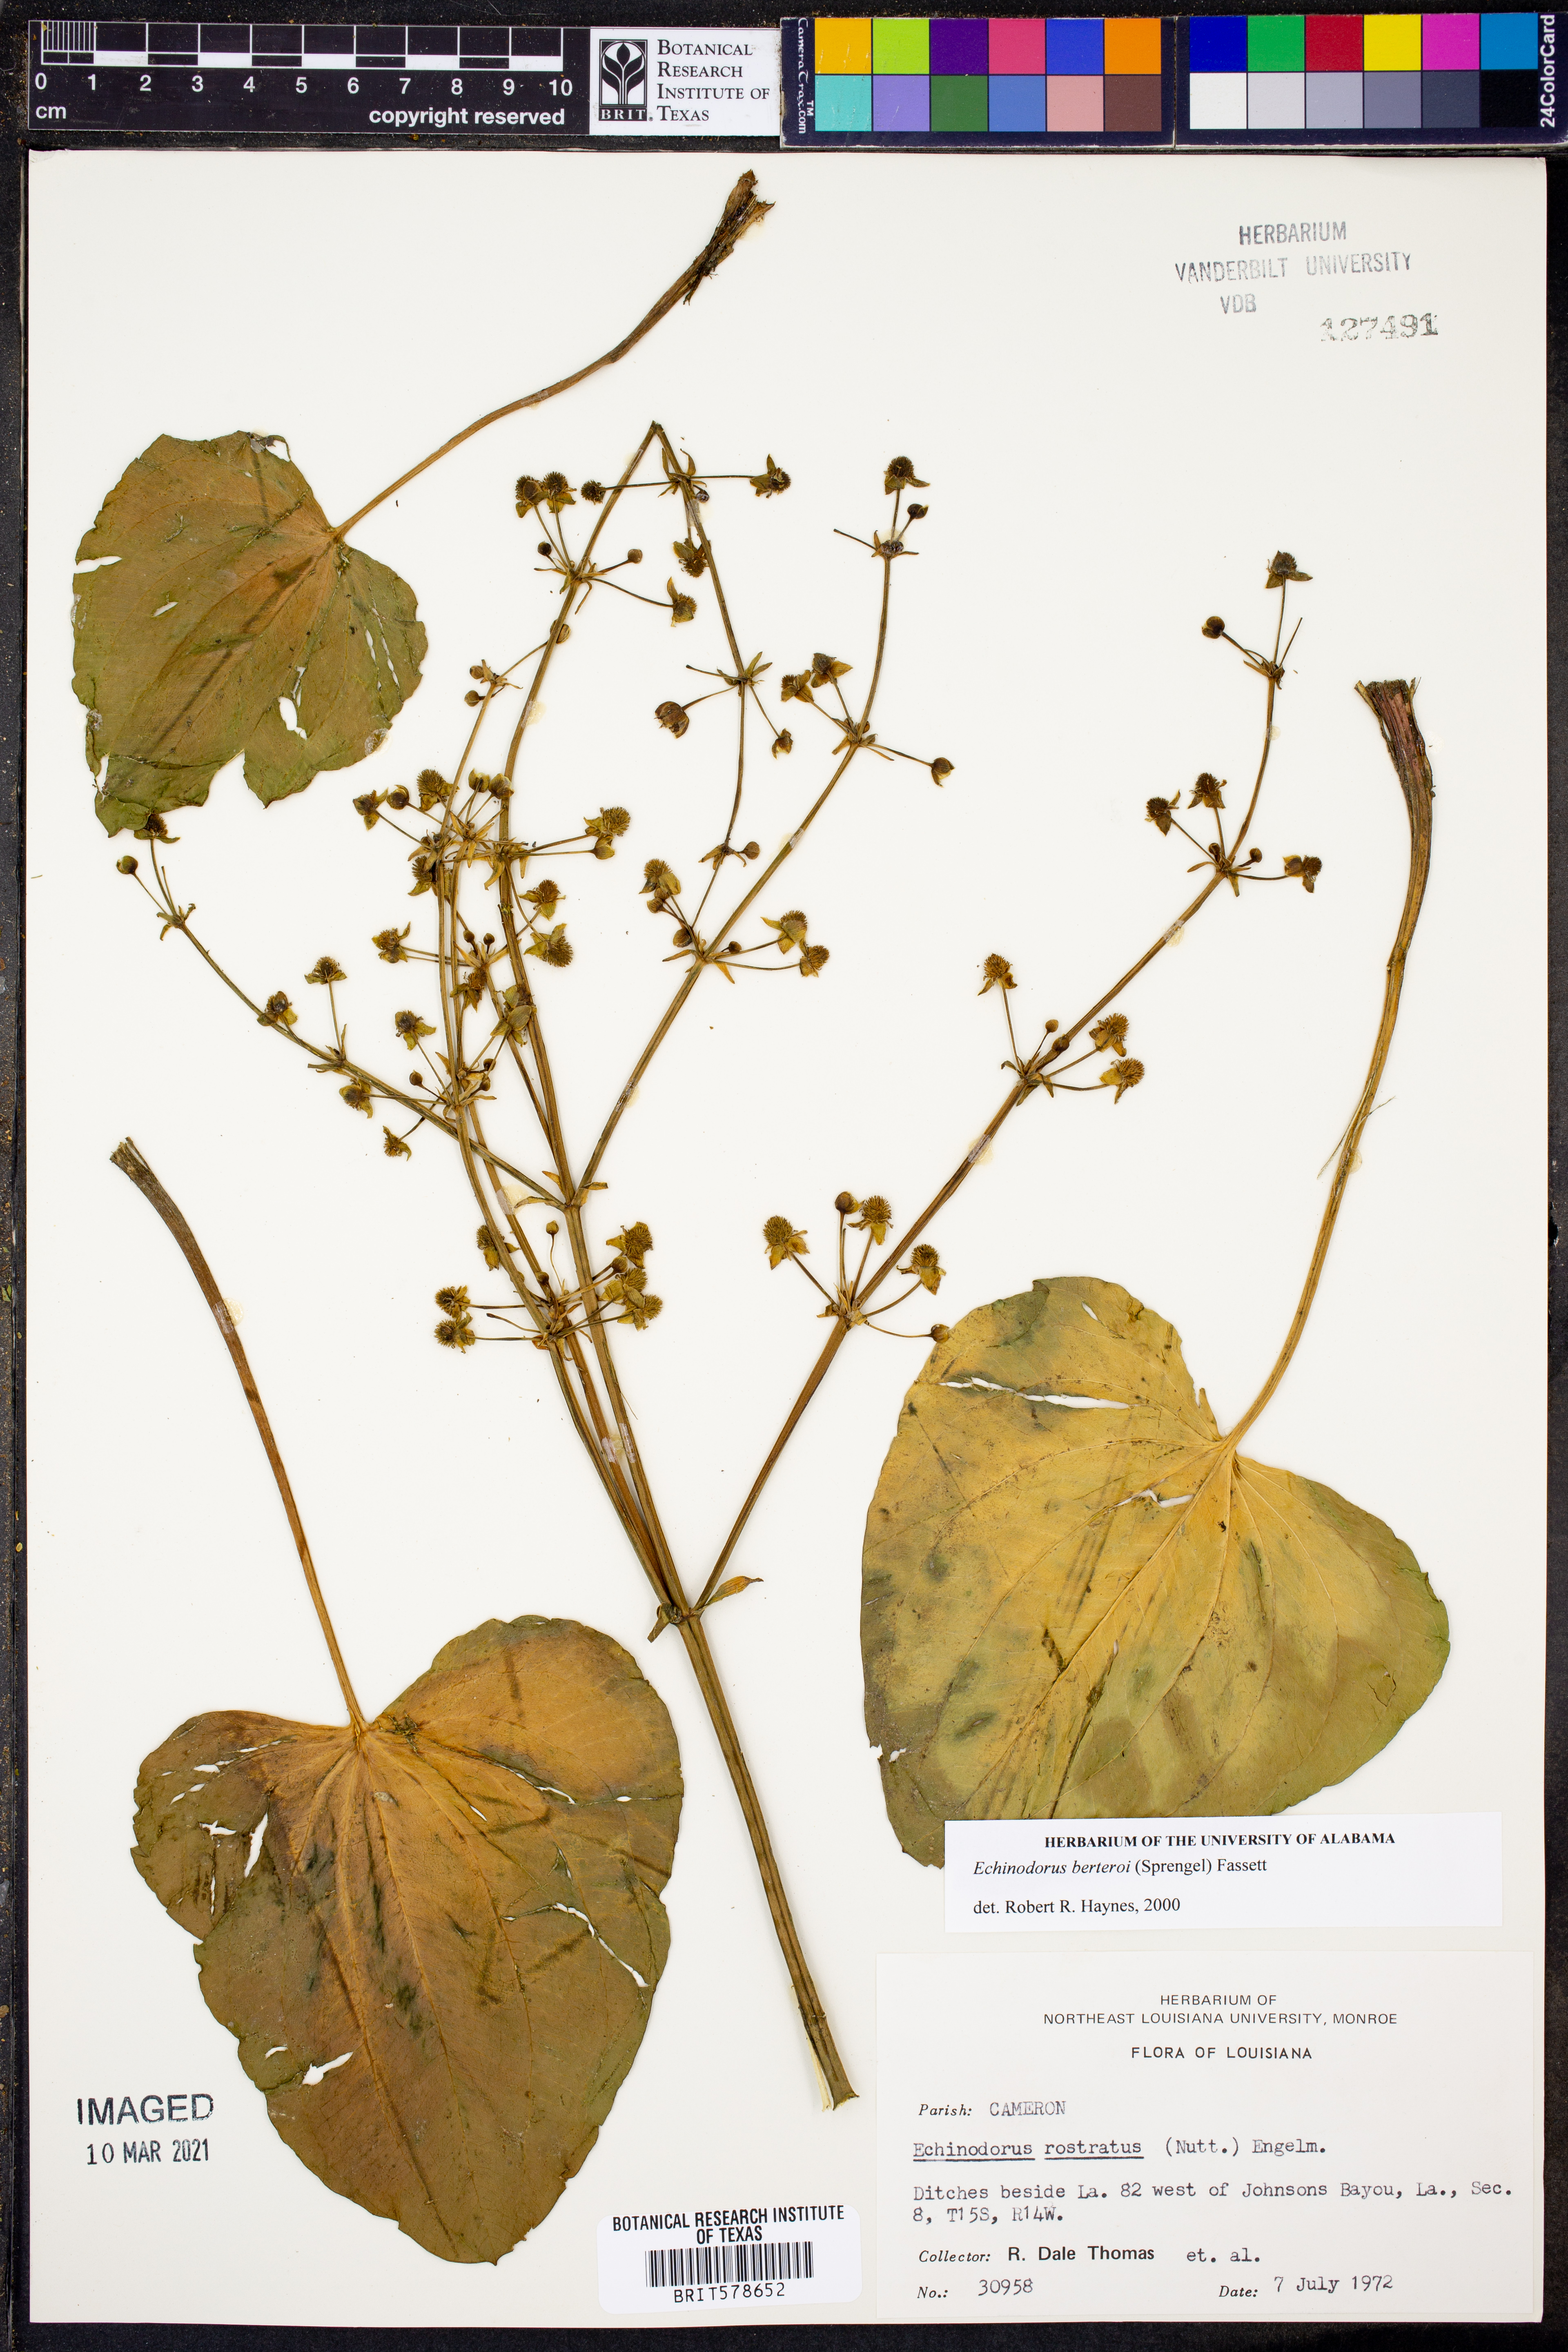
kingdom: Plantae
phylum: Tracheophyta
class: Liliopsida
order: Alismatales
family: Alismataceae
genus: Echinodorus
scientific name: Echinodorus berteroi
